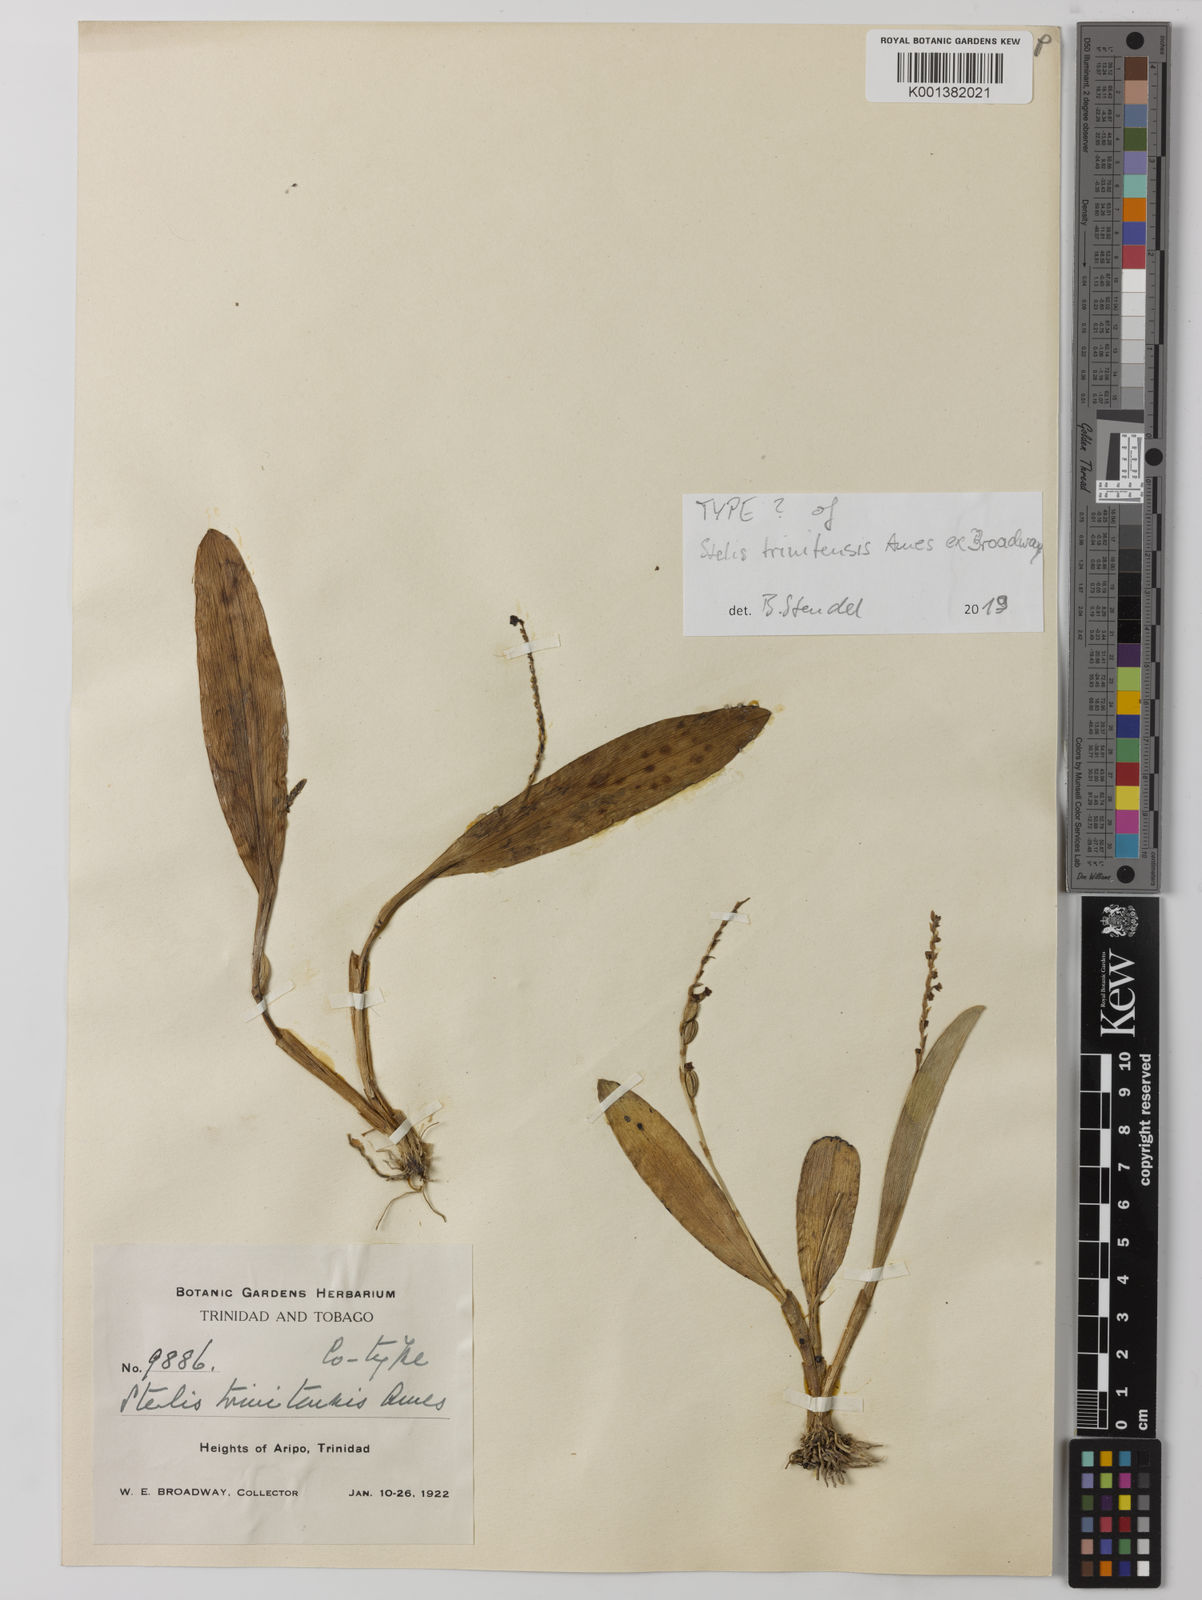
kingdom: Plantae
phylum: Tracheophyta
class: Liliopsida
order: Asparagales
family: Orchidaceae
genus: Stelis
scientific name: Stelis grandiflora
